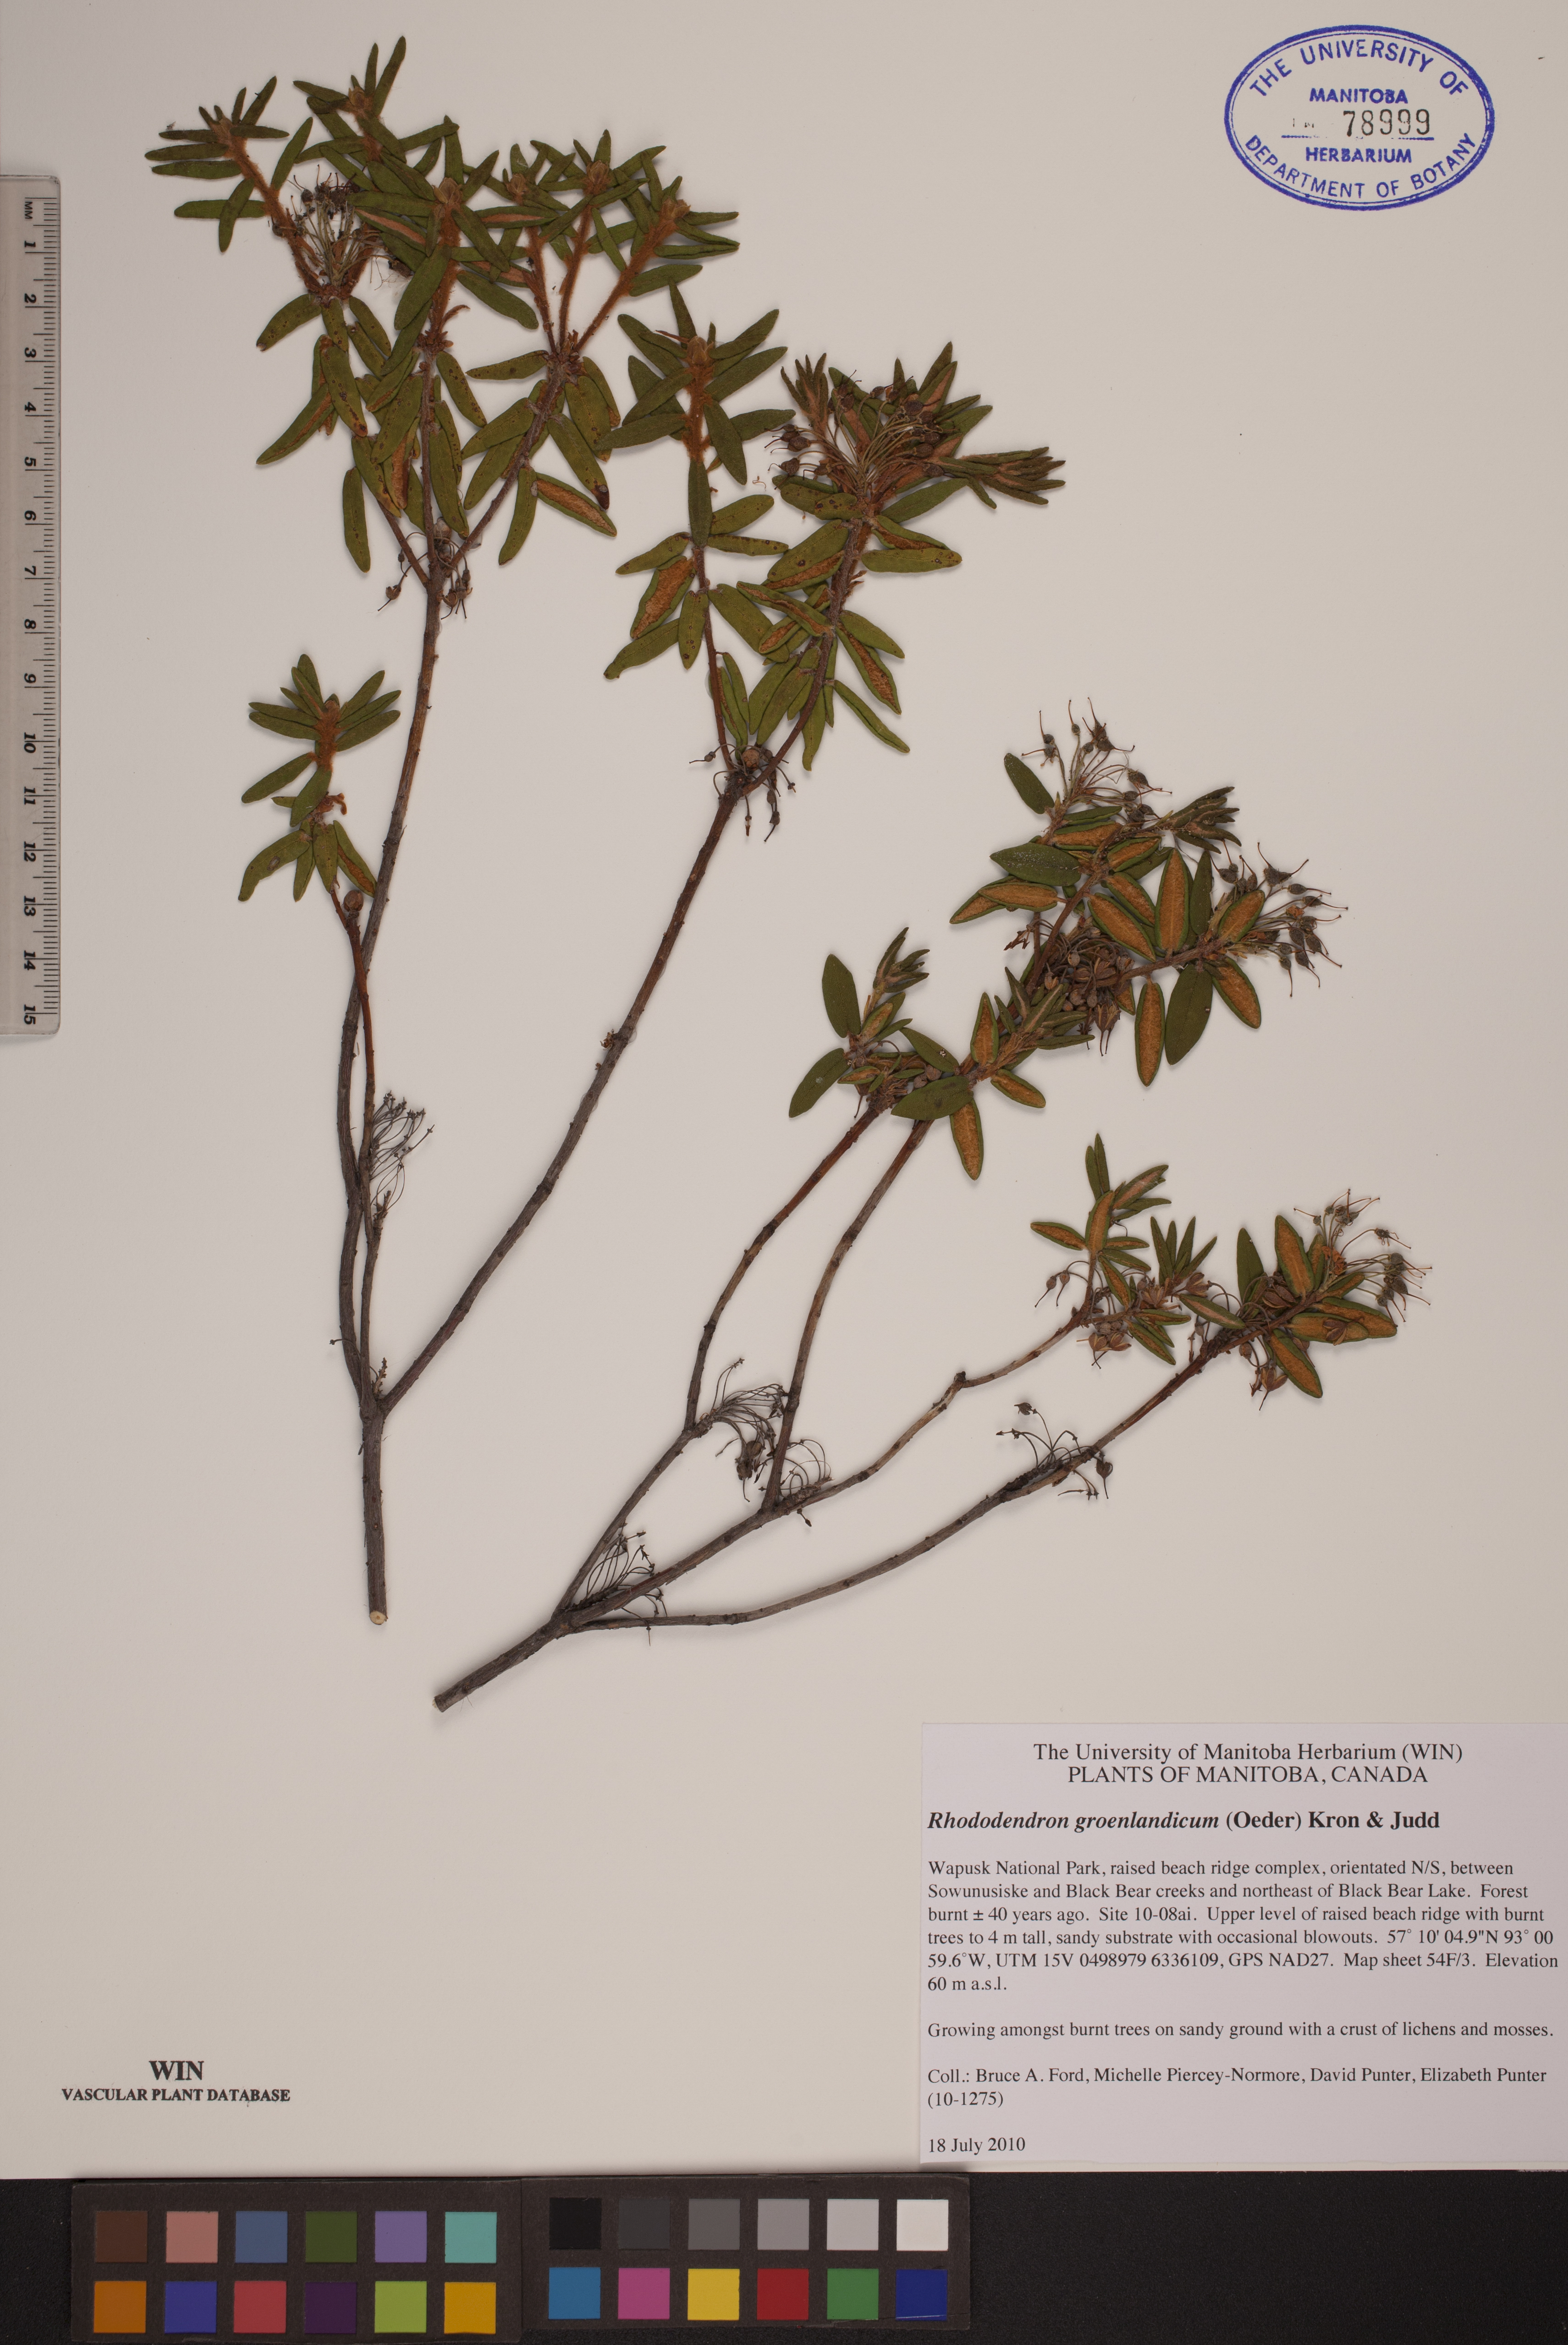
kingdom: Plantae
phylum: Tracheophyta
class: Magnoliopsida
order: Ericales
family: Ericaceae
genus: Rhododendron
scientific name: Rhododendron groenlandicum
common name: Bog labrador tea
